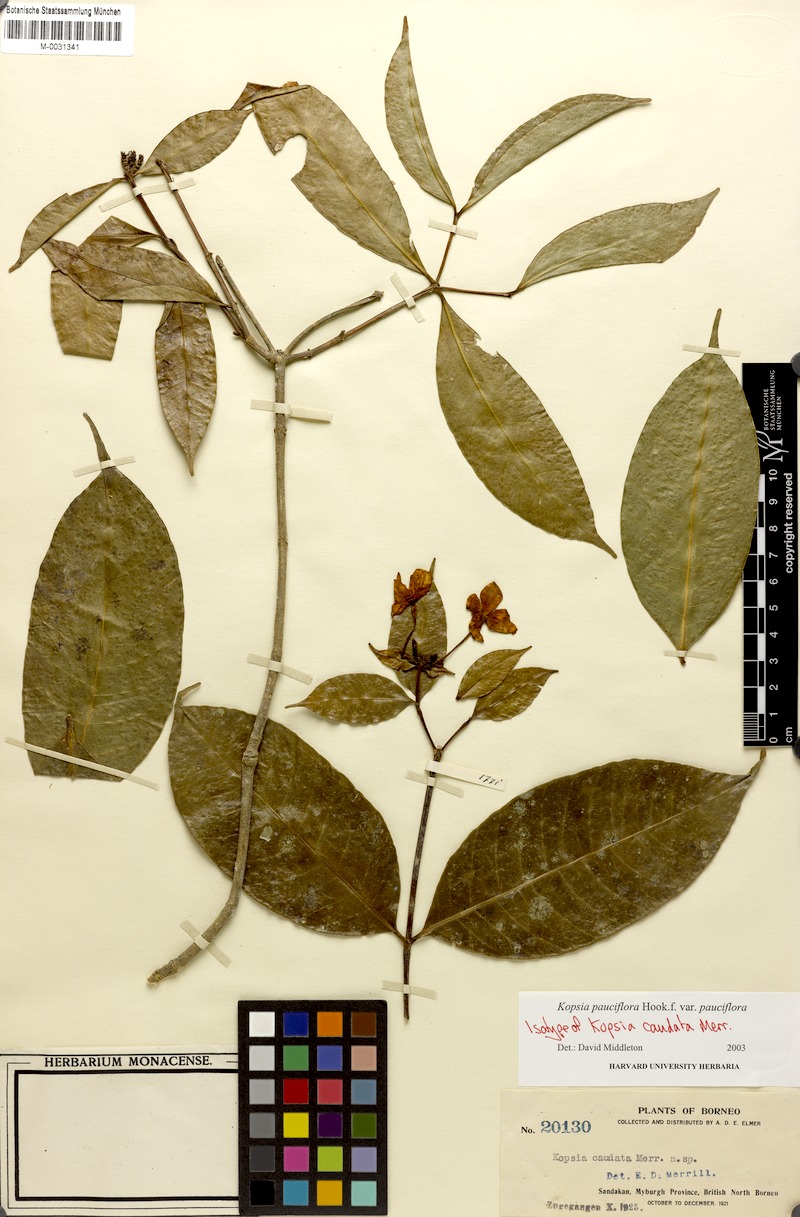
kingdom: Plantae
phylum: Tracheophyta
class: Magnoliopsida
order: Gentianales
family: Apocynaceae
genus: Kopsia
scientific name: Kopsia pauciflora
